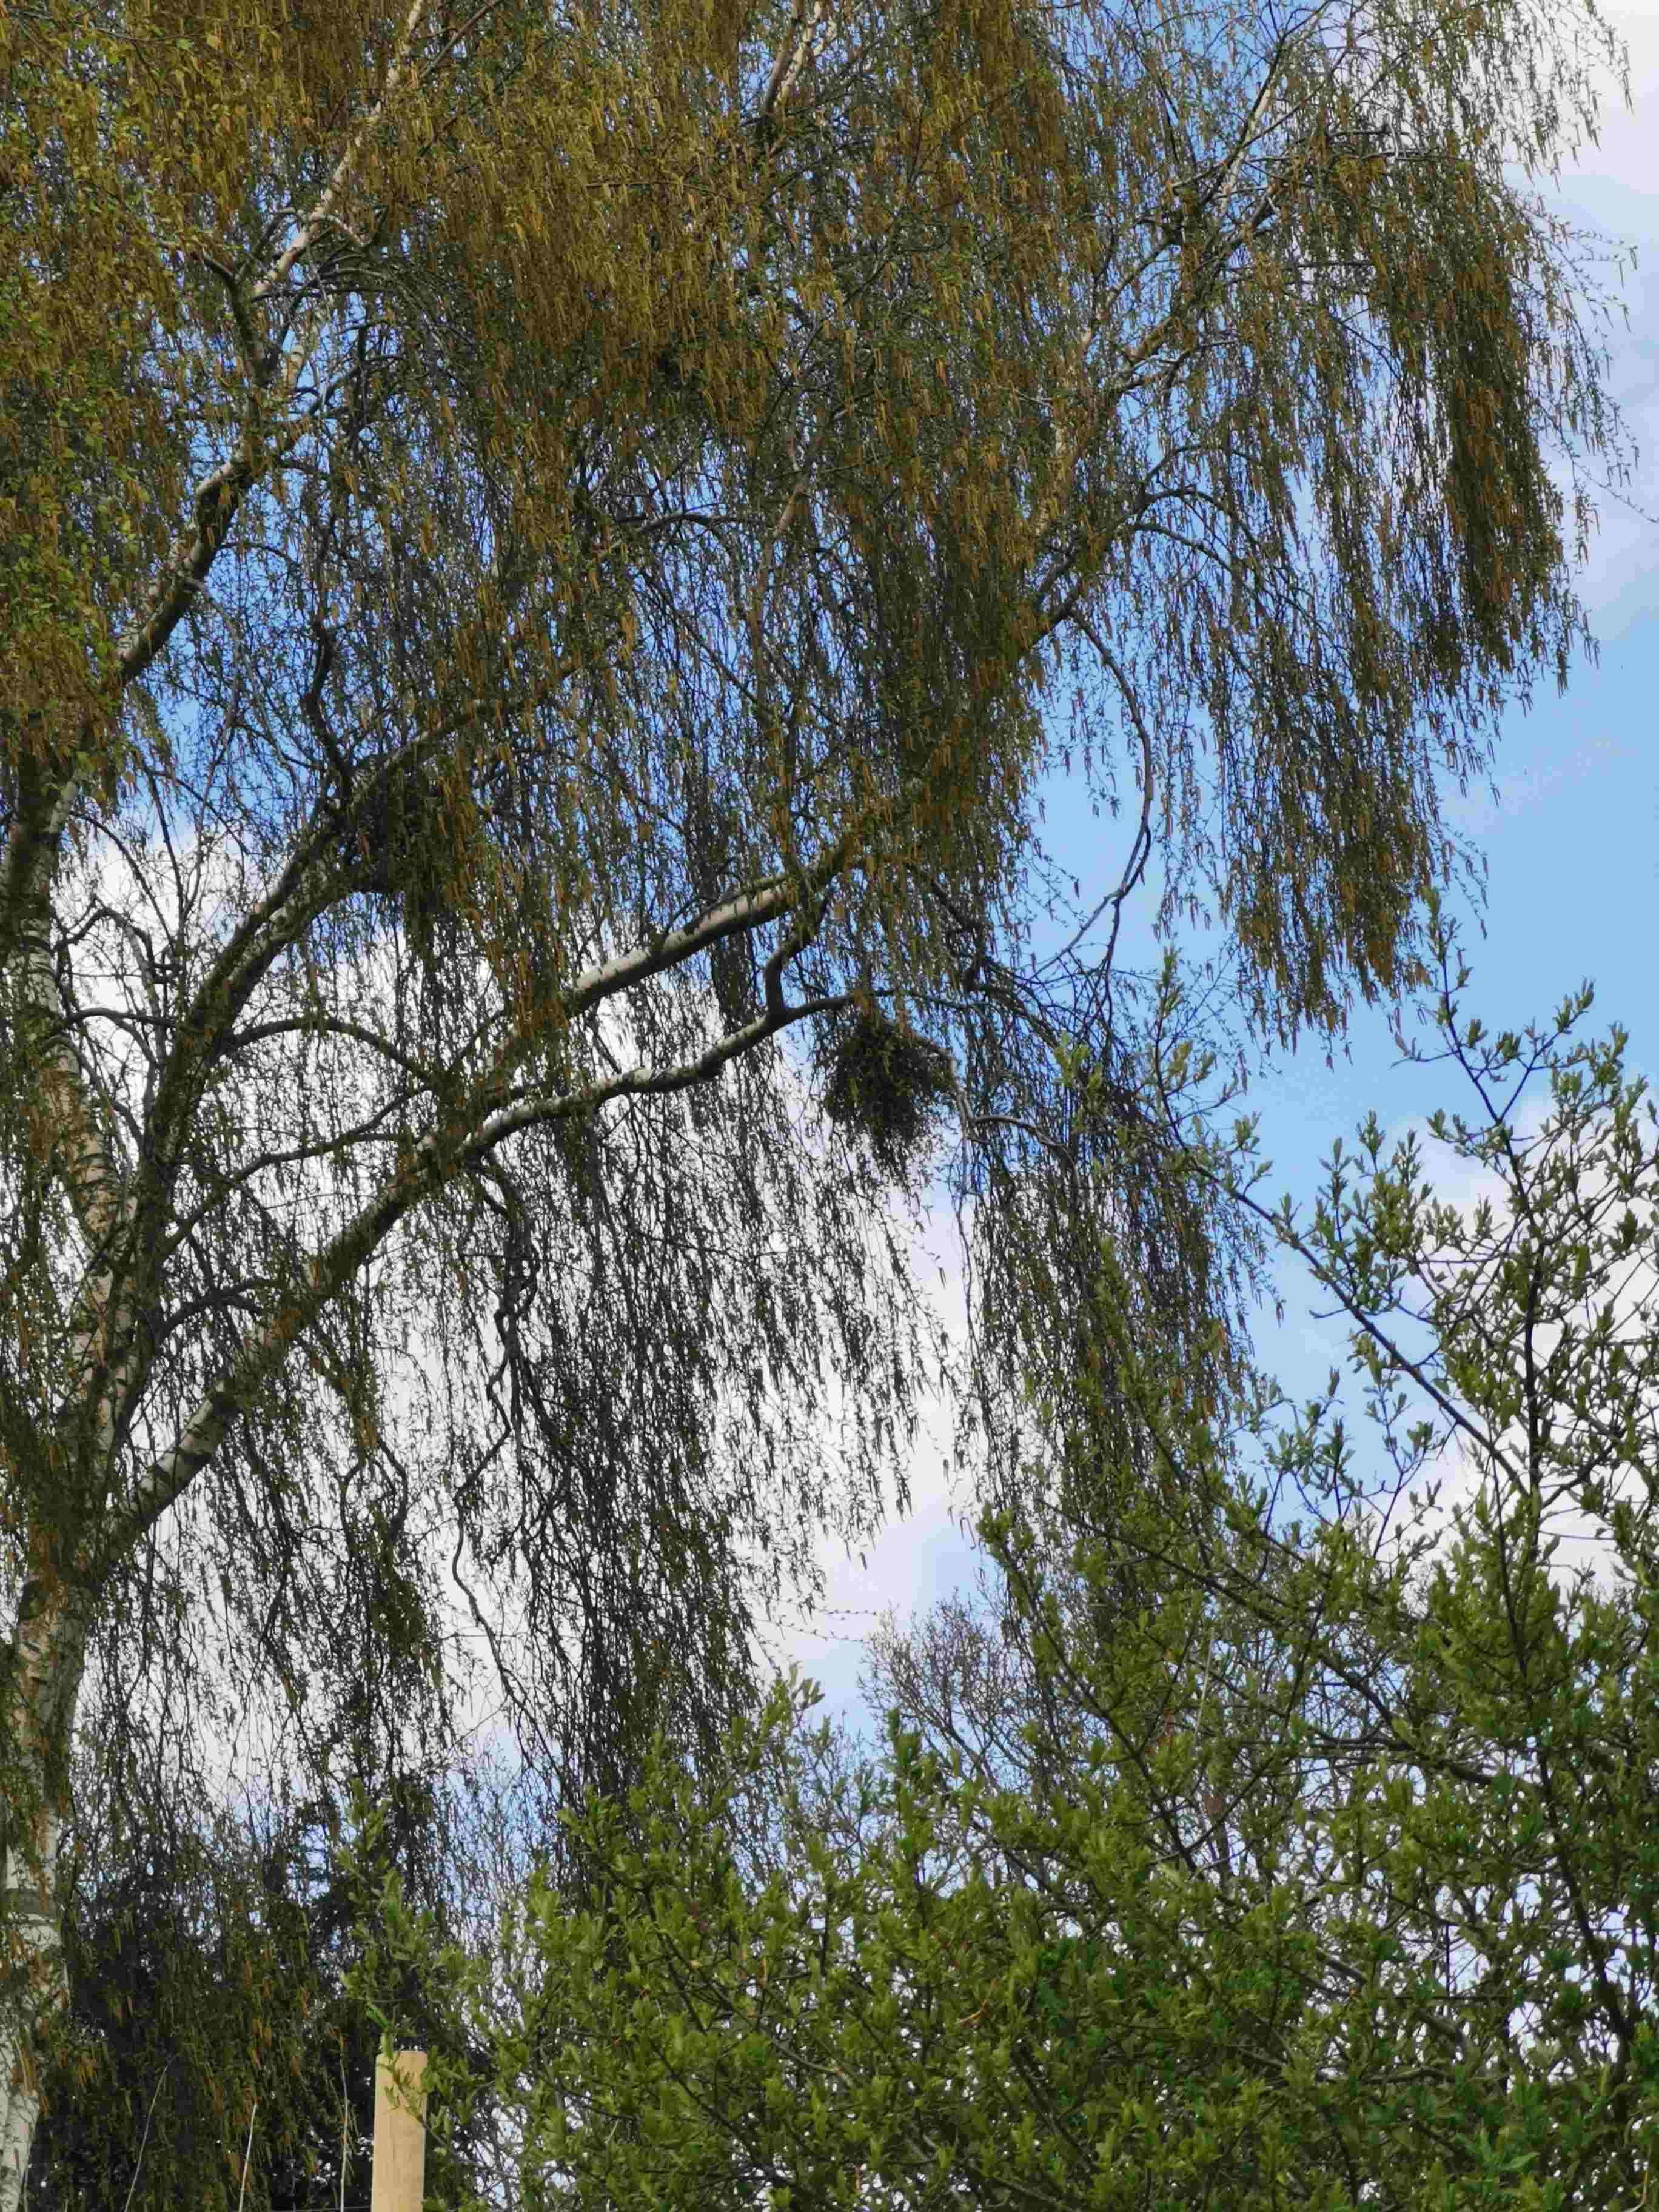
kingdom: Fungi
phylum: Ascomycota
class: Taphrinomycetes
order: Taphrinales
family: Taphrinaceae
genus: Taphrina
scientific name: Taphrina betulina
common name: hekse-sækdug
